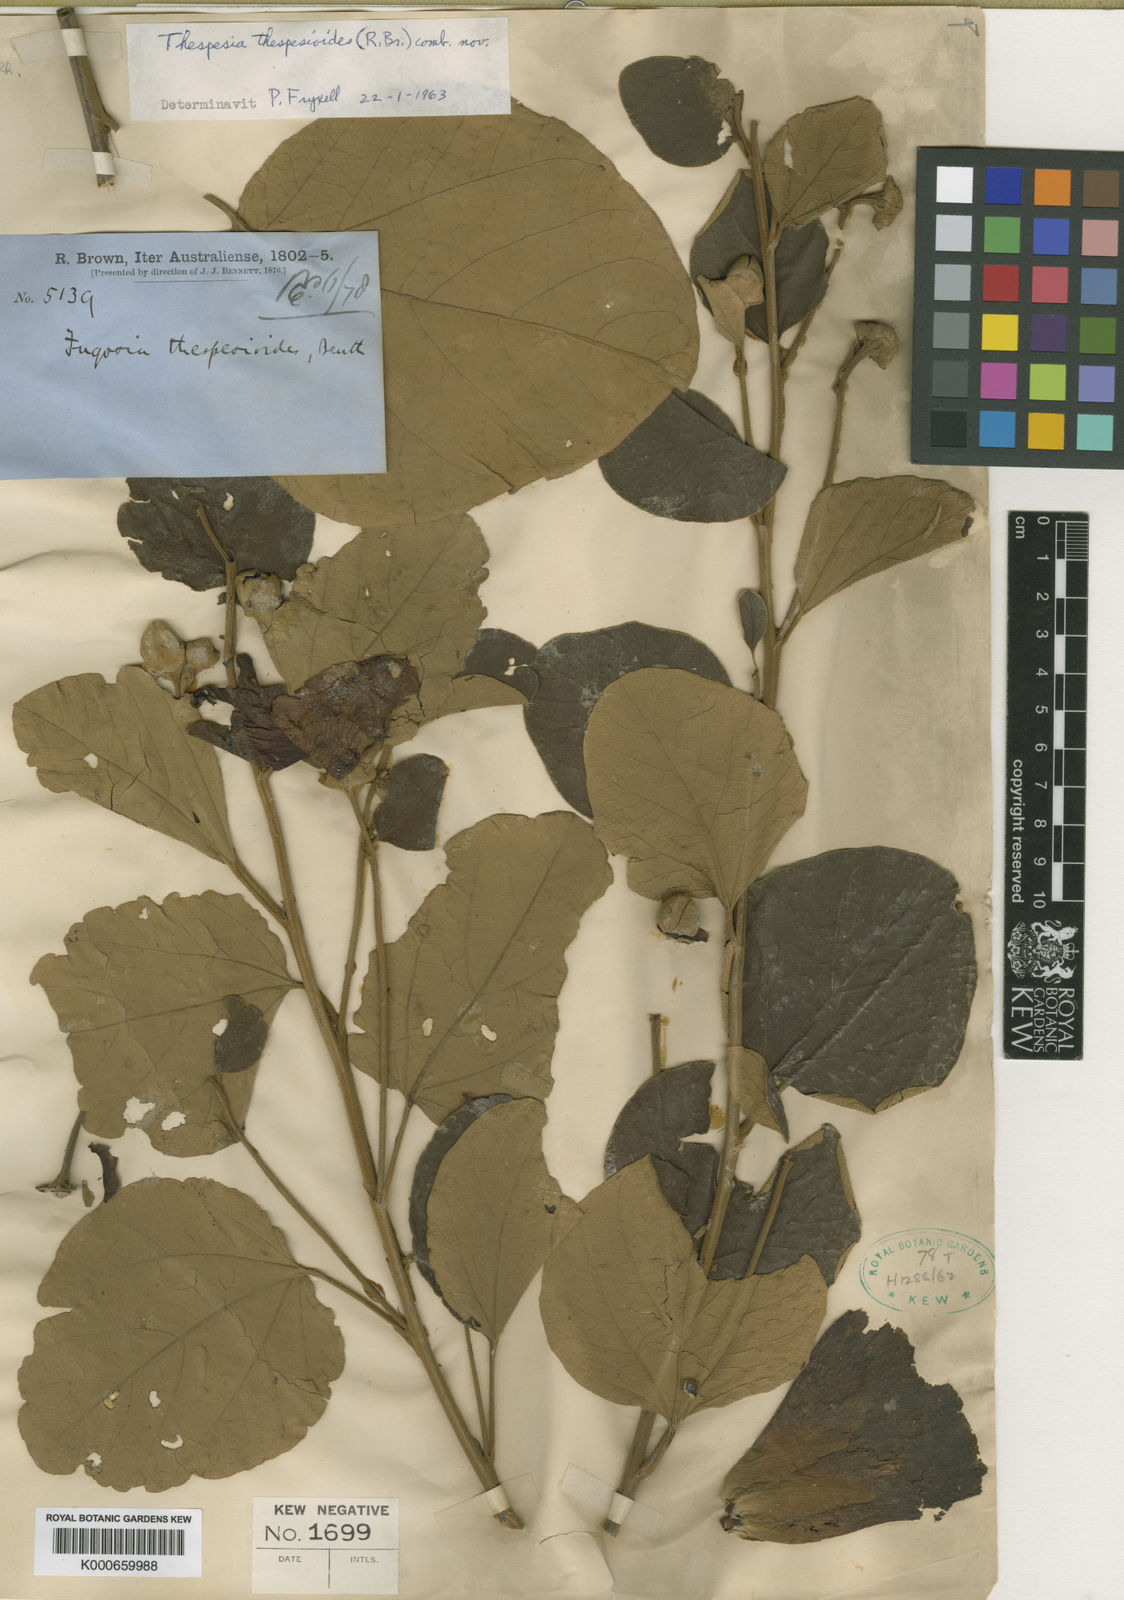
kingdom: Plantae
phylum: Tracheophyta
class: Magnoliopsida
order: Malvales
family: Malvaceae
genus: Thespesia
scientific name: Thespesia thespesioides
